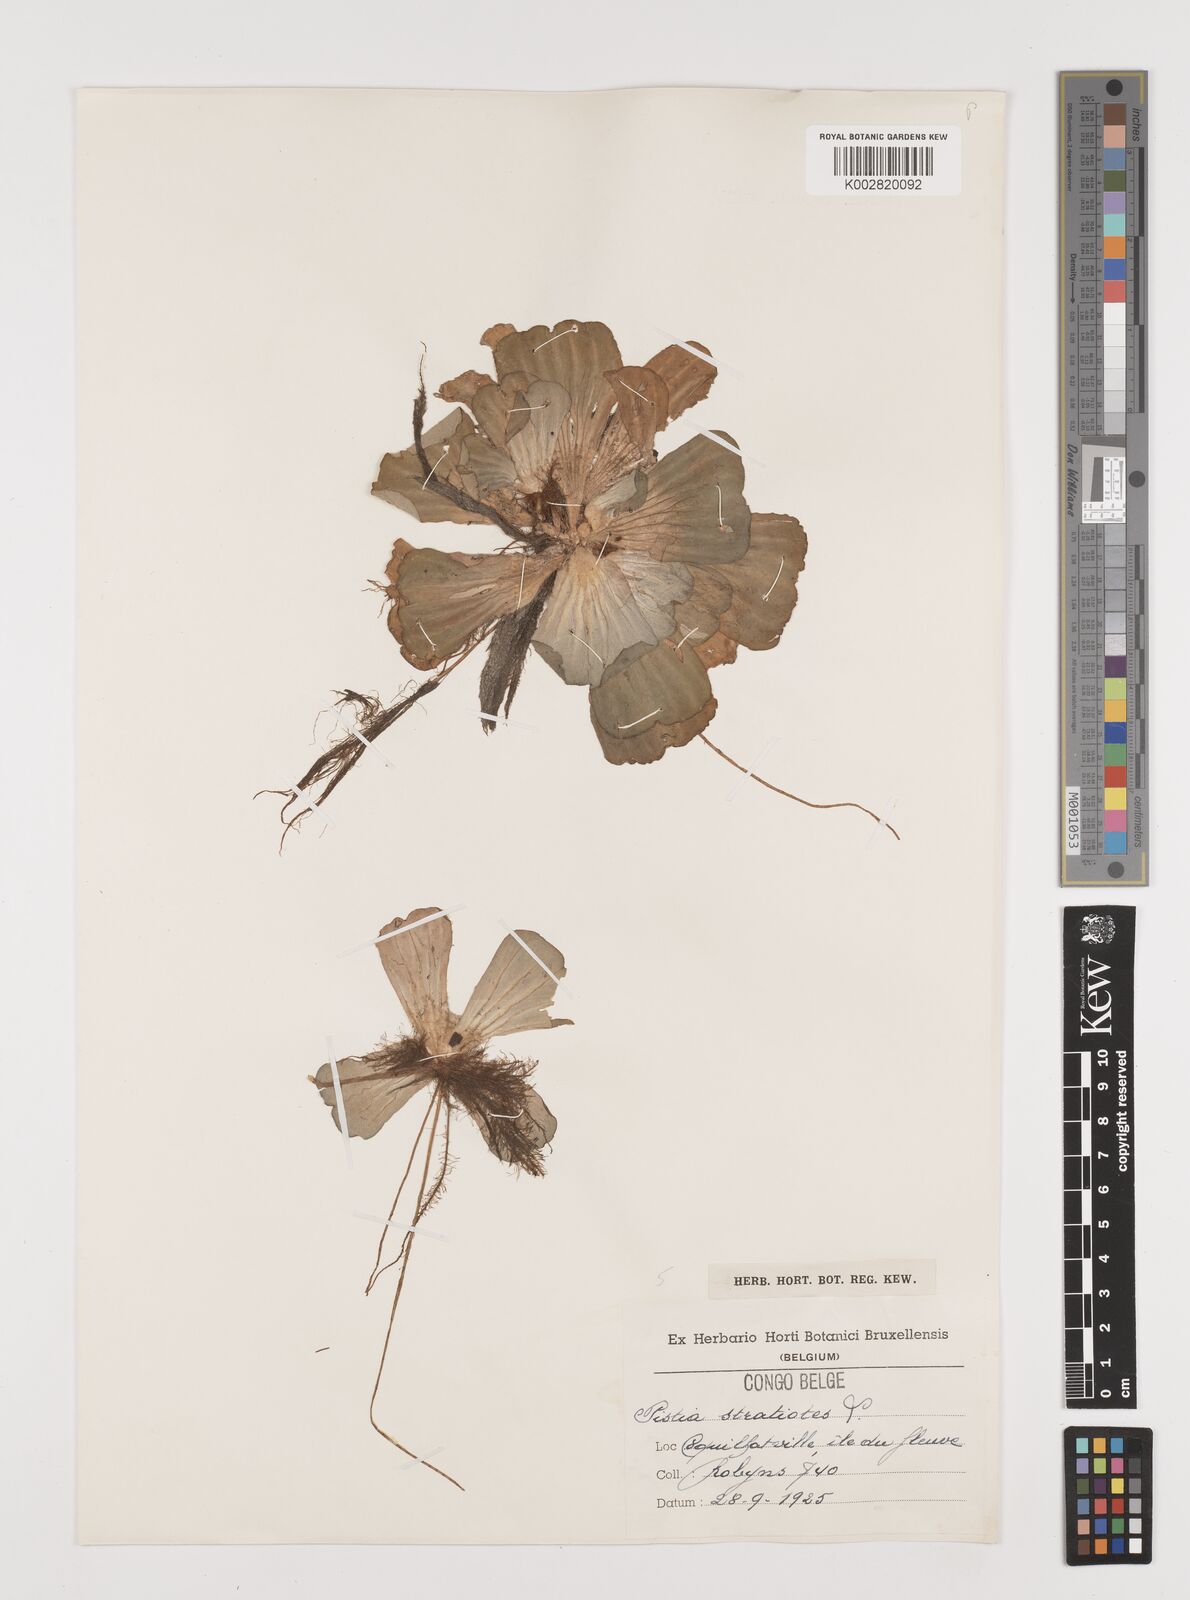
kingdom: Plantae
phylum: Tracheophyta
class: Liliopsida
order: Alismatales
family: Araceae
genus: Pistia
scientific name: Pistia stratiotes
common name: Water lettuce
